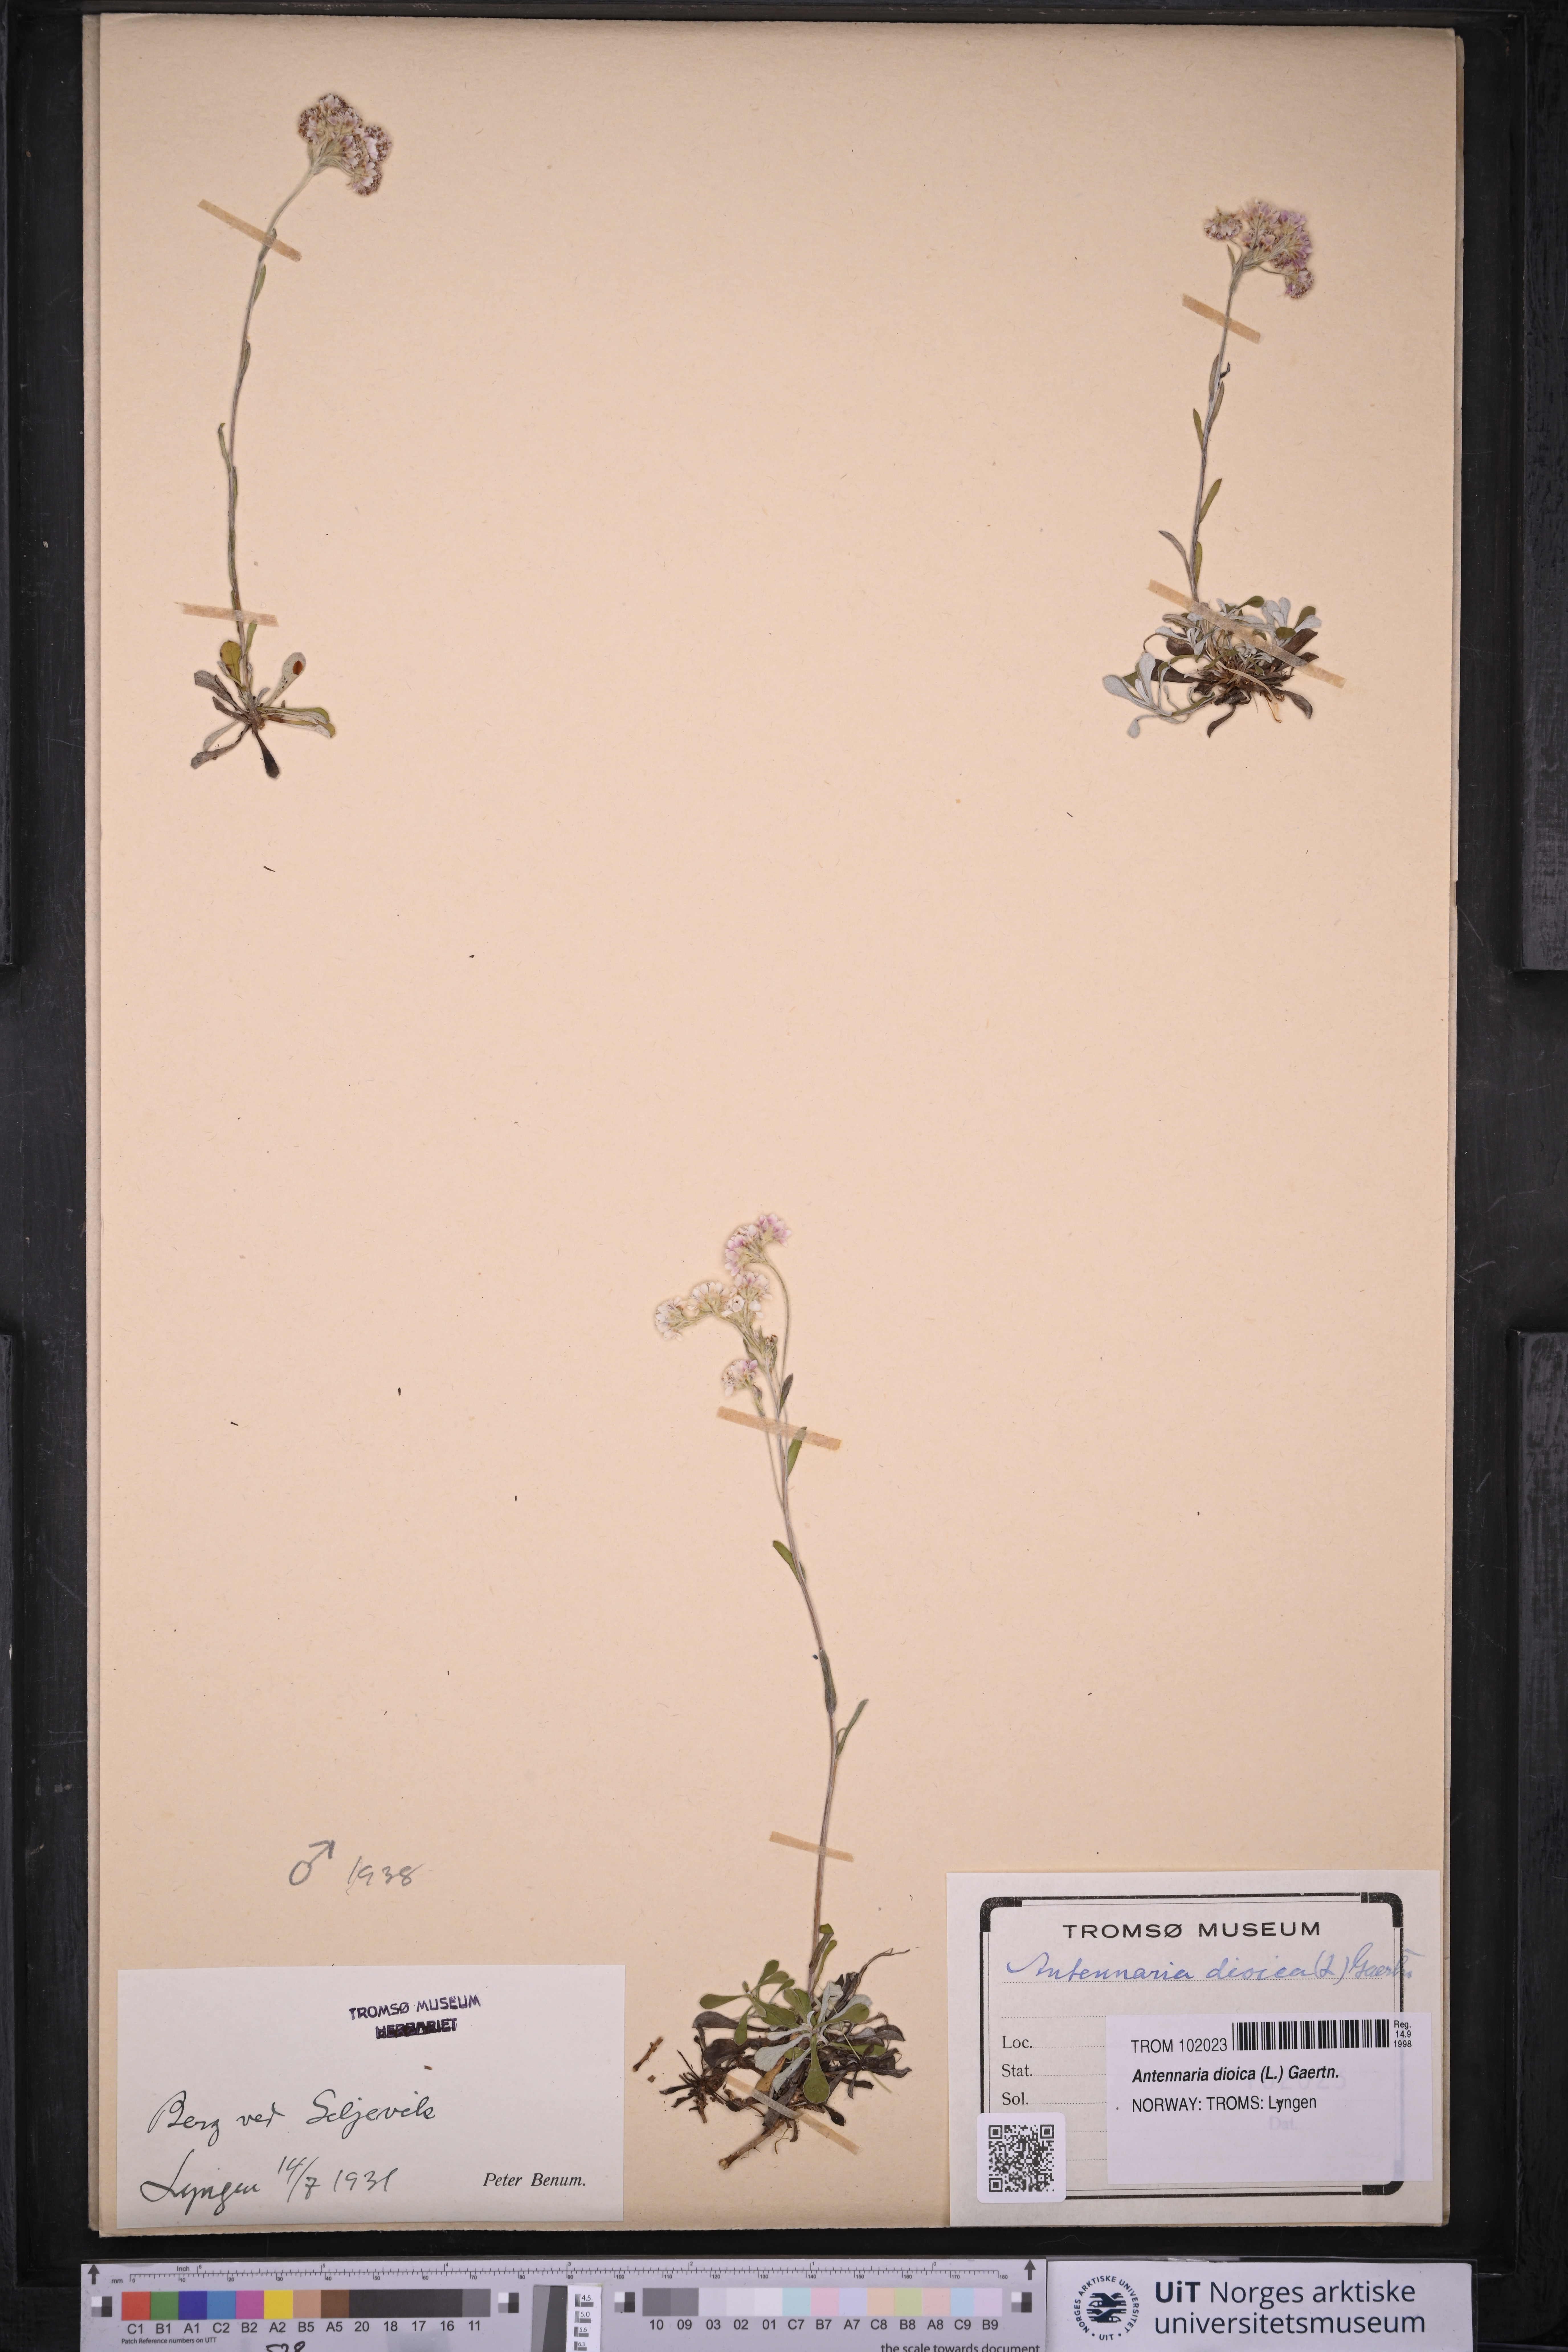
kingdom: Plantae
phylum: Tracheophyta
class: Magnoliopsida
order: Asterales
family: Asteraceae
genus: Antennaria
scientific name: Antennaria dioica
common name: Mountain everlasting
